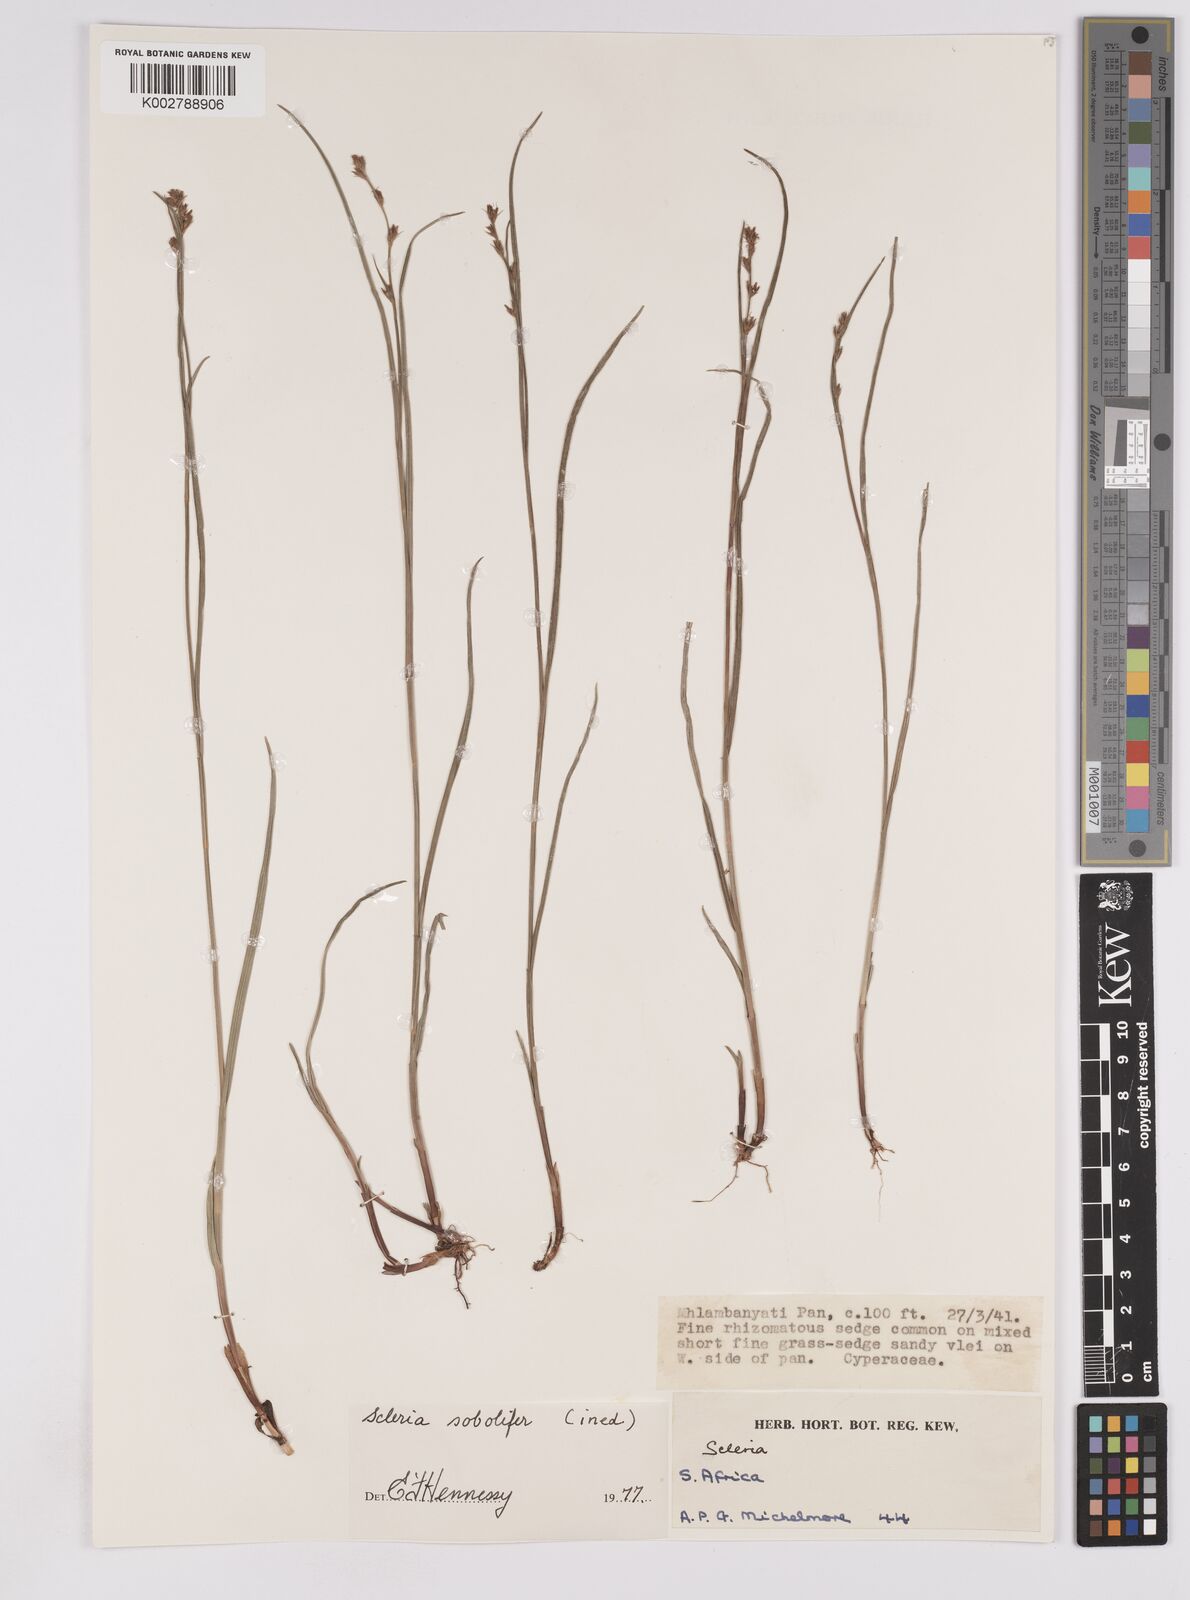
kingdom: Plantae
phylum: Tracheophyta
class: Liliopsida
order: Poales
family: Cyperaceae
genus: Scleria
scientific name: Scleria sobolifera
